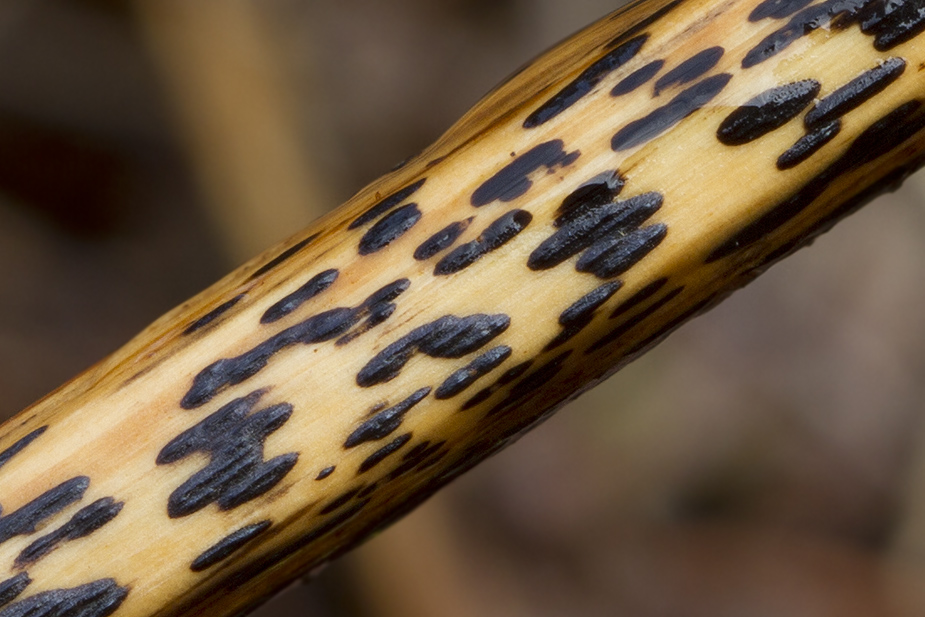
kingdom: Fungi
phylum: Ascomycota
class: Dothideomycetes
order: Pleosporales
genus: Rhopographus
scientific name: Rhopographus filicinus
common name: Bracken map
